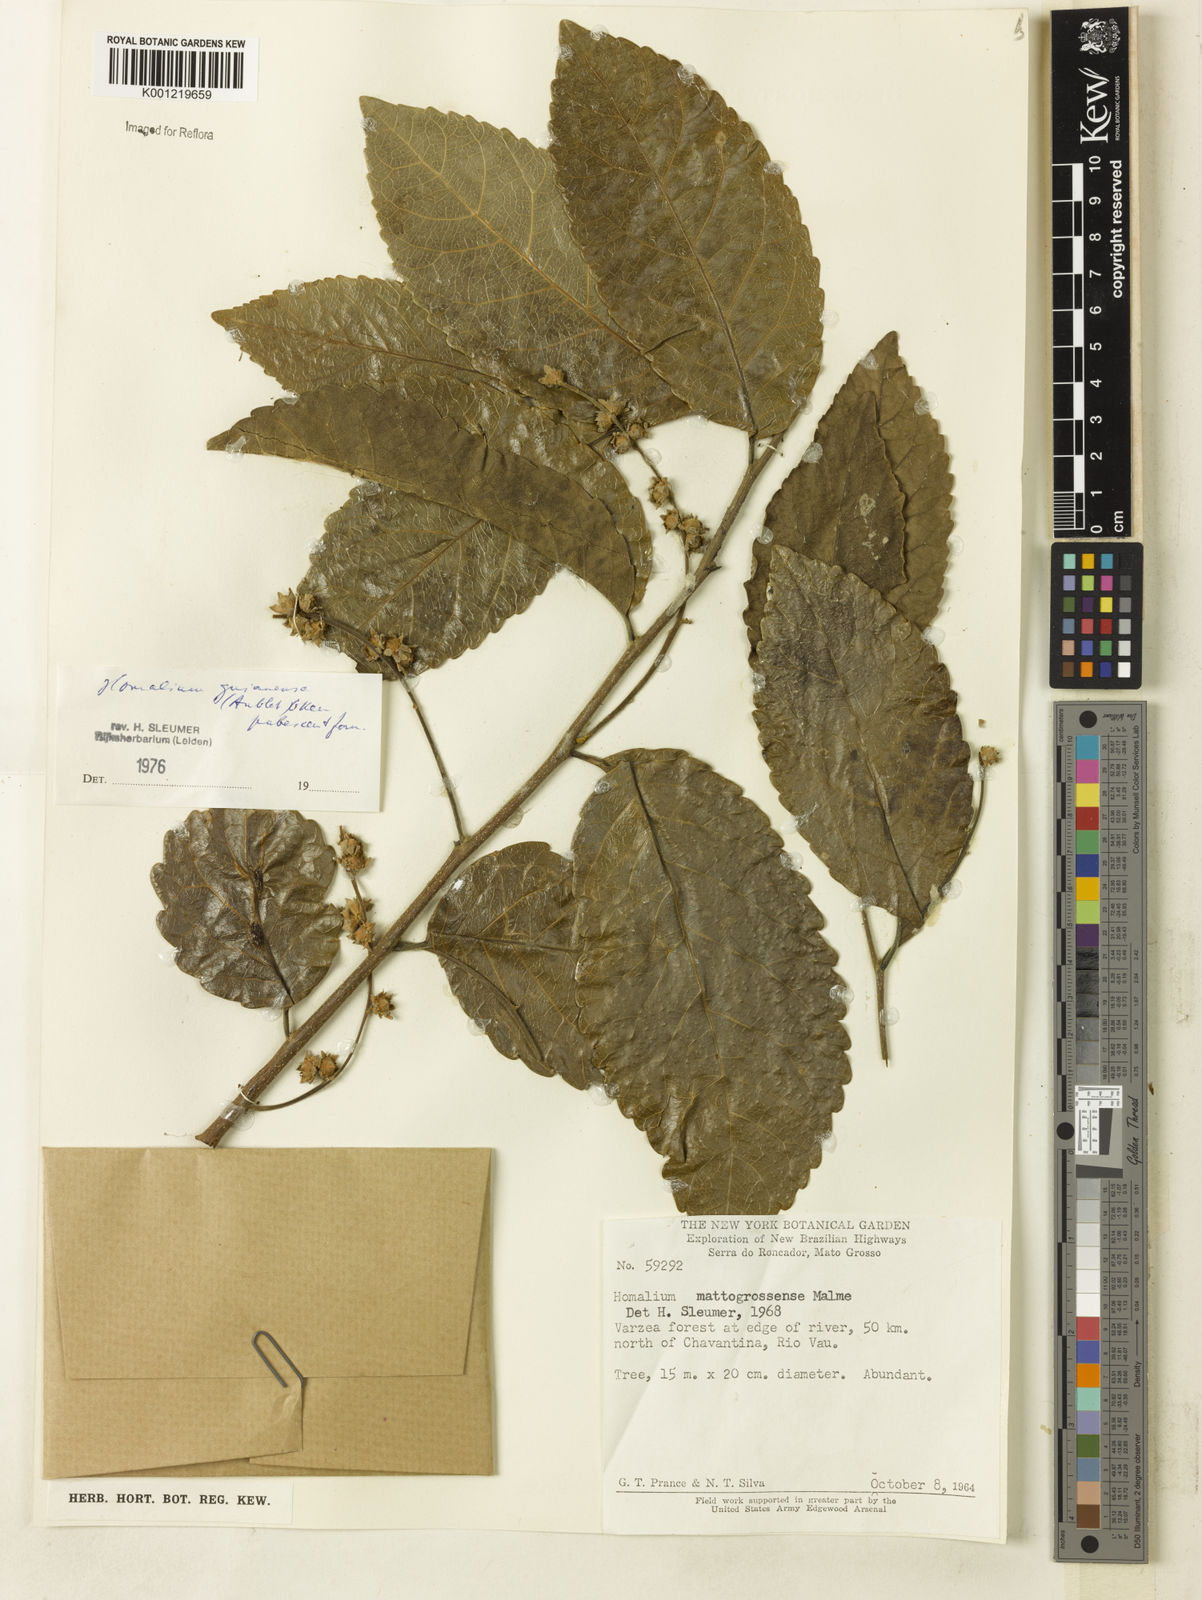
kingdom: Plantae
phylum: Tracheophyta
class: Magnoliopsida
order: Malpighiales
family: Salicaceae
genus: Homalium
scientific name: Homalium guianense
